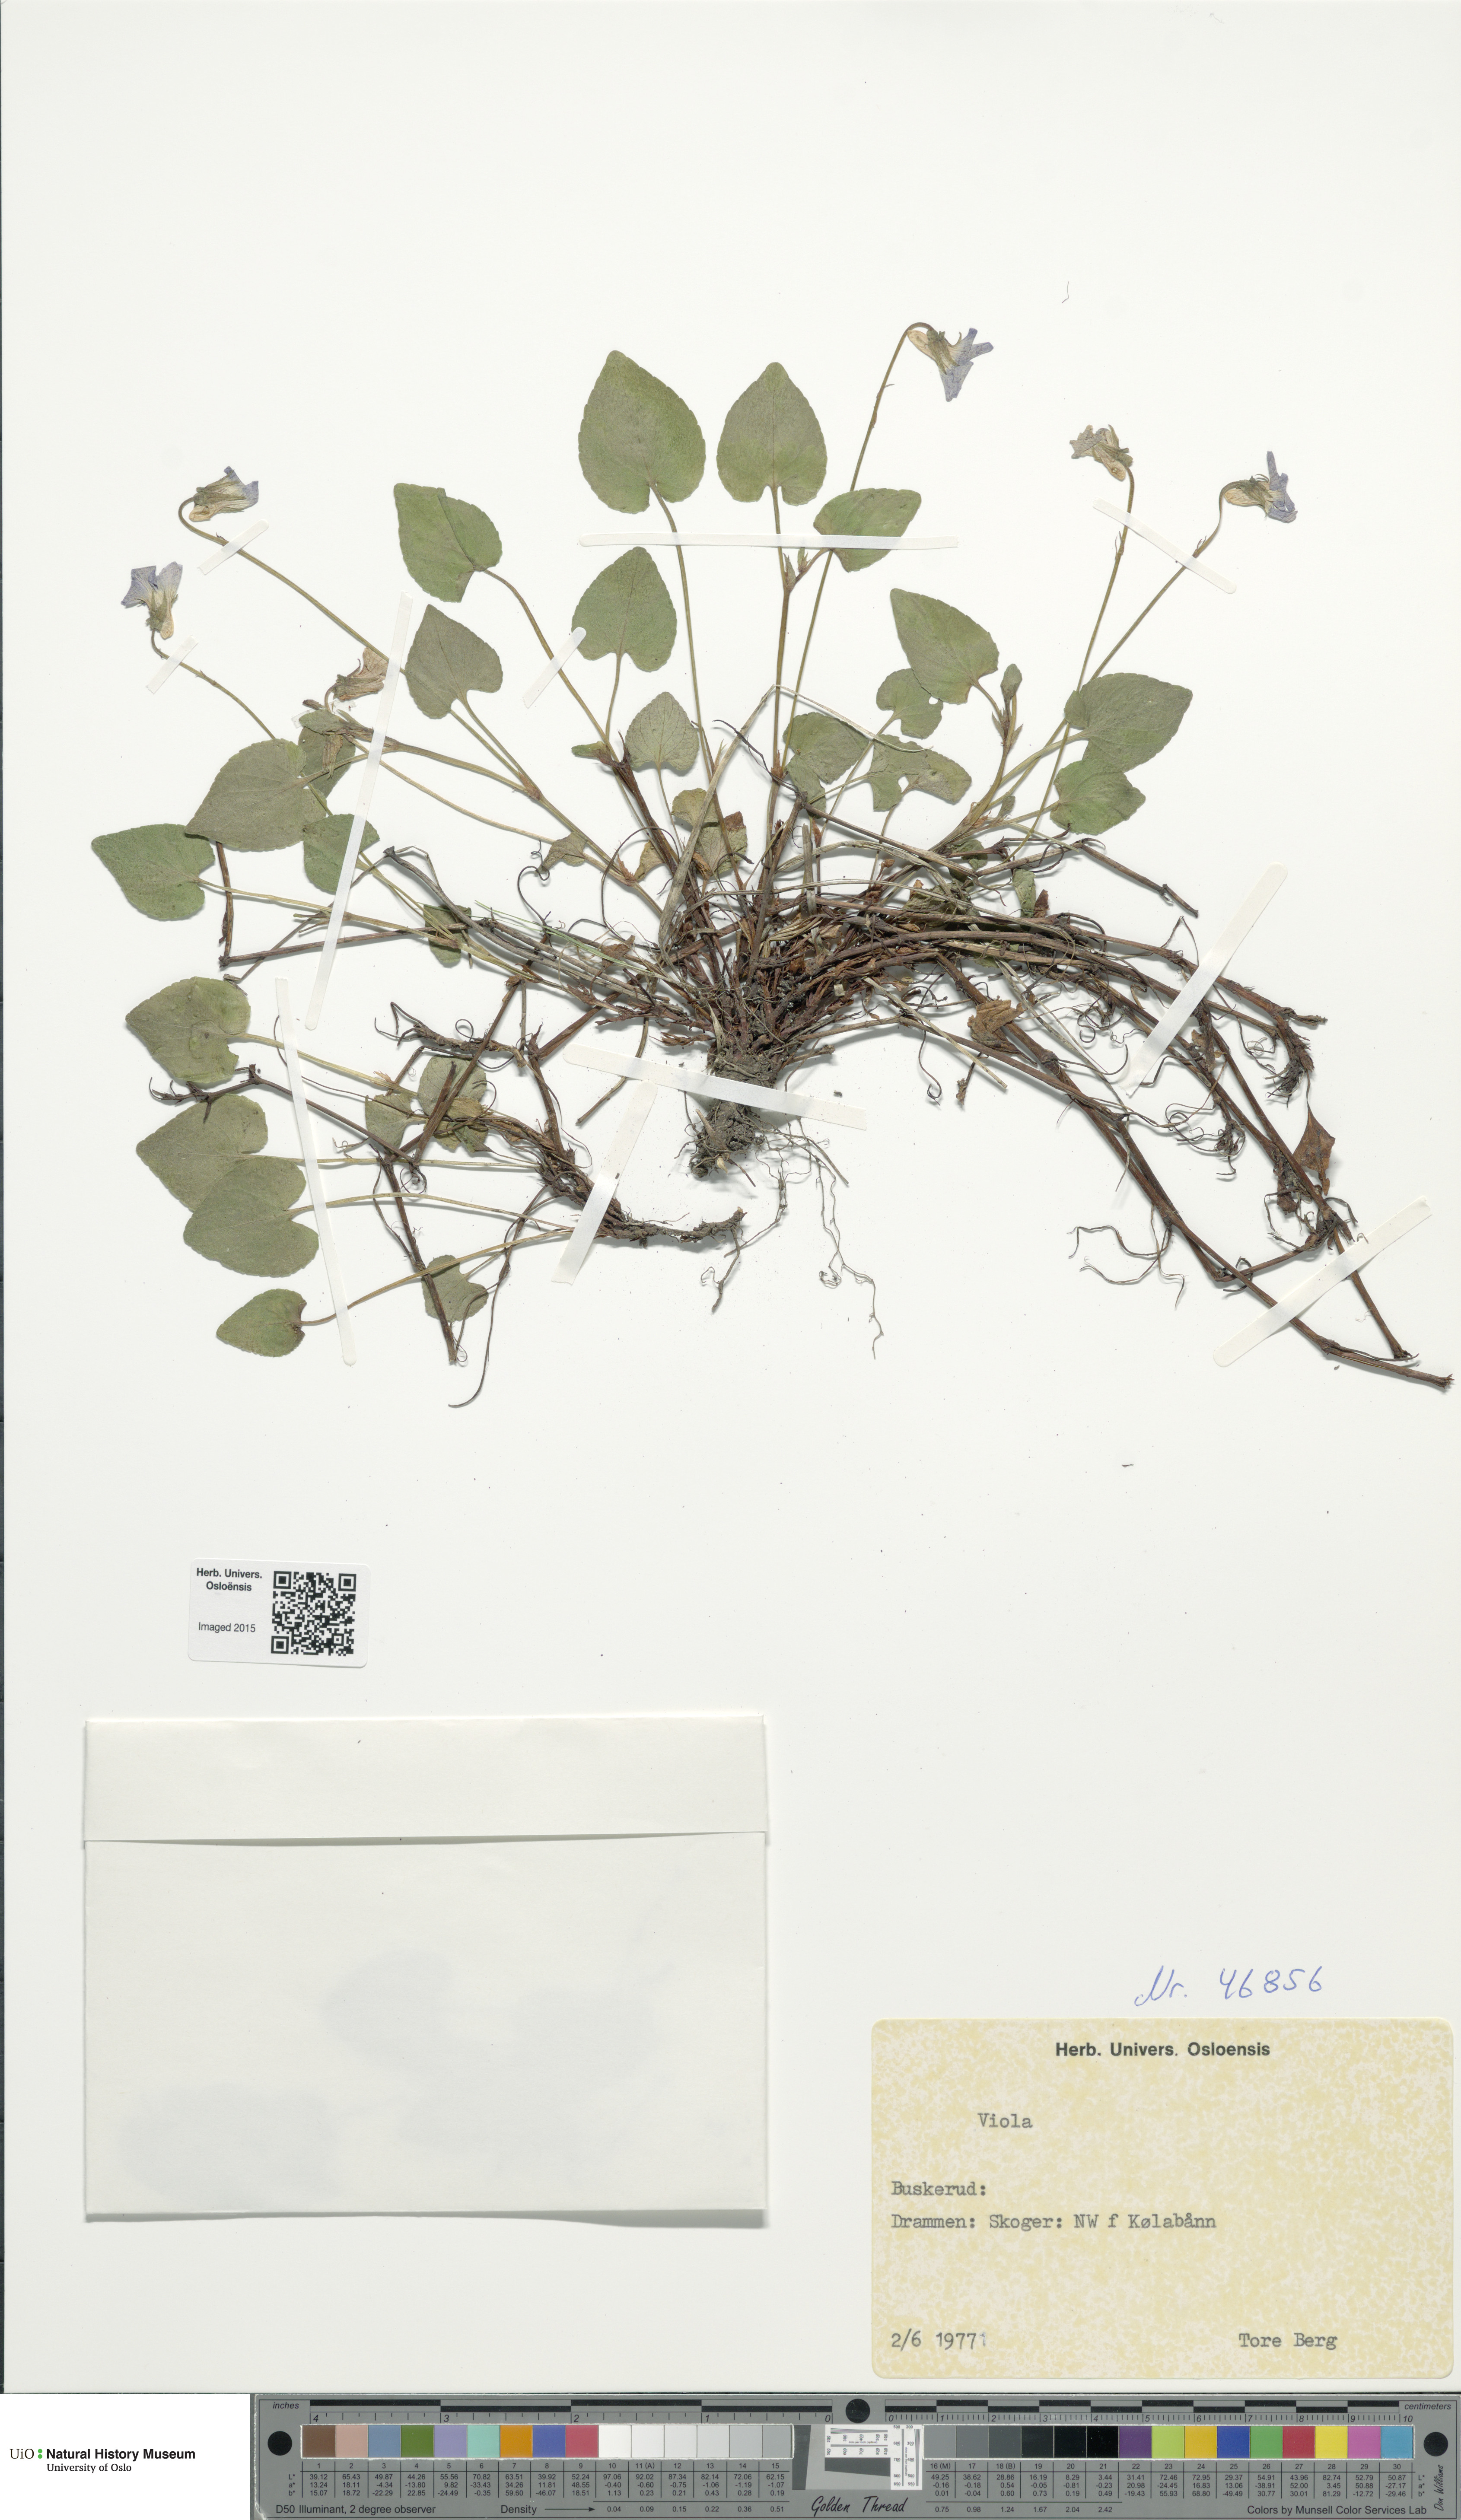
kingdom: Plantae
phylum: Tracheophyta
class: Magnoliopsida
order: Malpighiales
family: Violaceae
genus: Viola
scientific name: Viola
